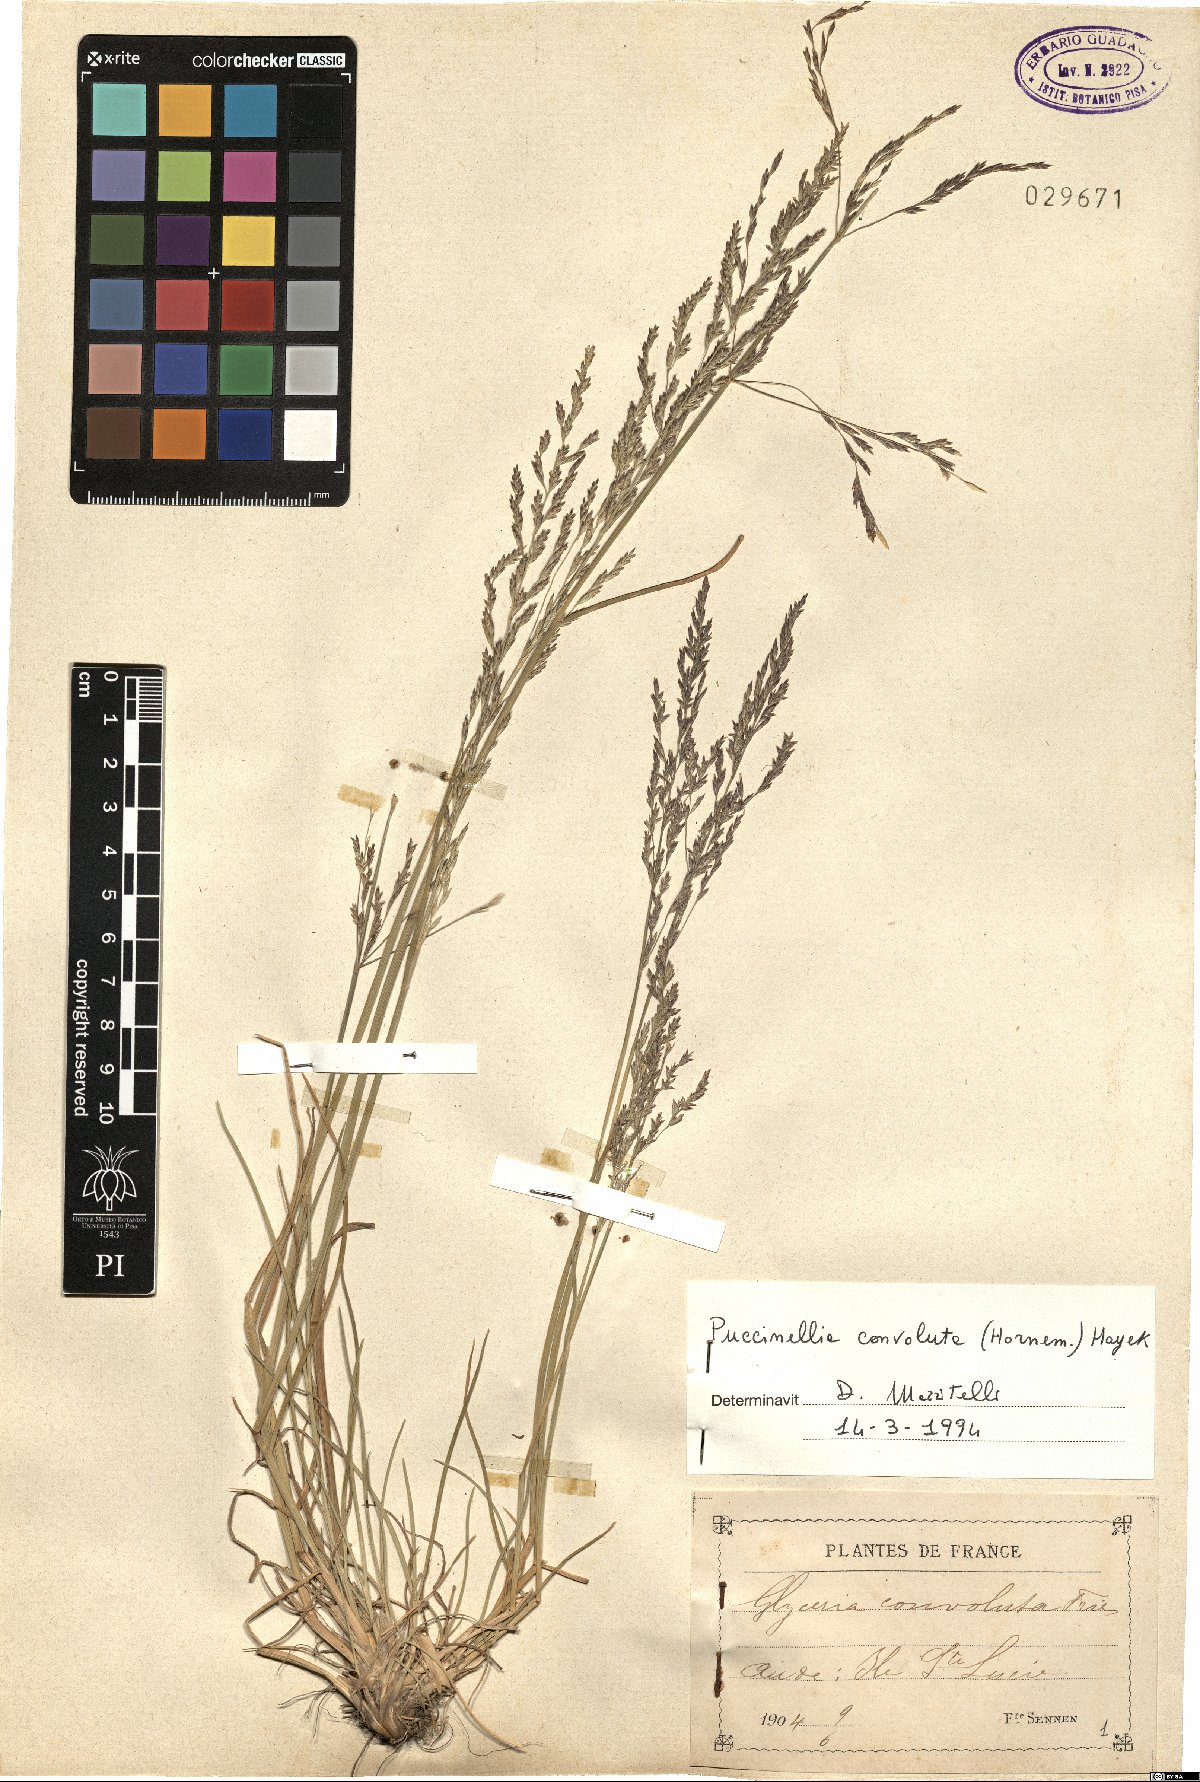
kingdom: Plantae
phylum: Tracheophyta
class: Liliopsida
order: Poales
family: Poaceae
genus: Puccinellia
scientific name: Puccinellia convoluta
